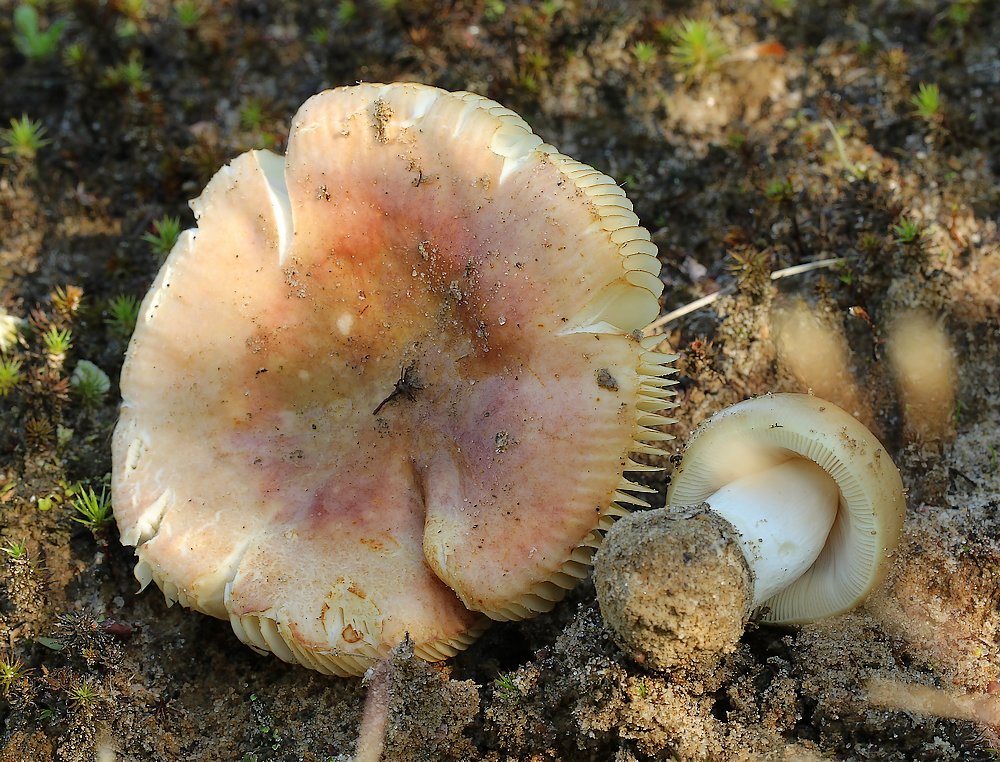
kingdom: Fungi
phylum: Basidiomycota
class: Agaricomycetes
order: Russulales
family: Russulaceae
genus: Russula
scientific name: Russula versicolor
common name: foranderlig skørhat
